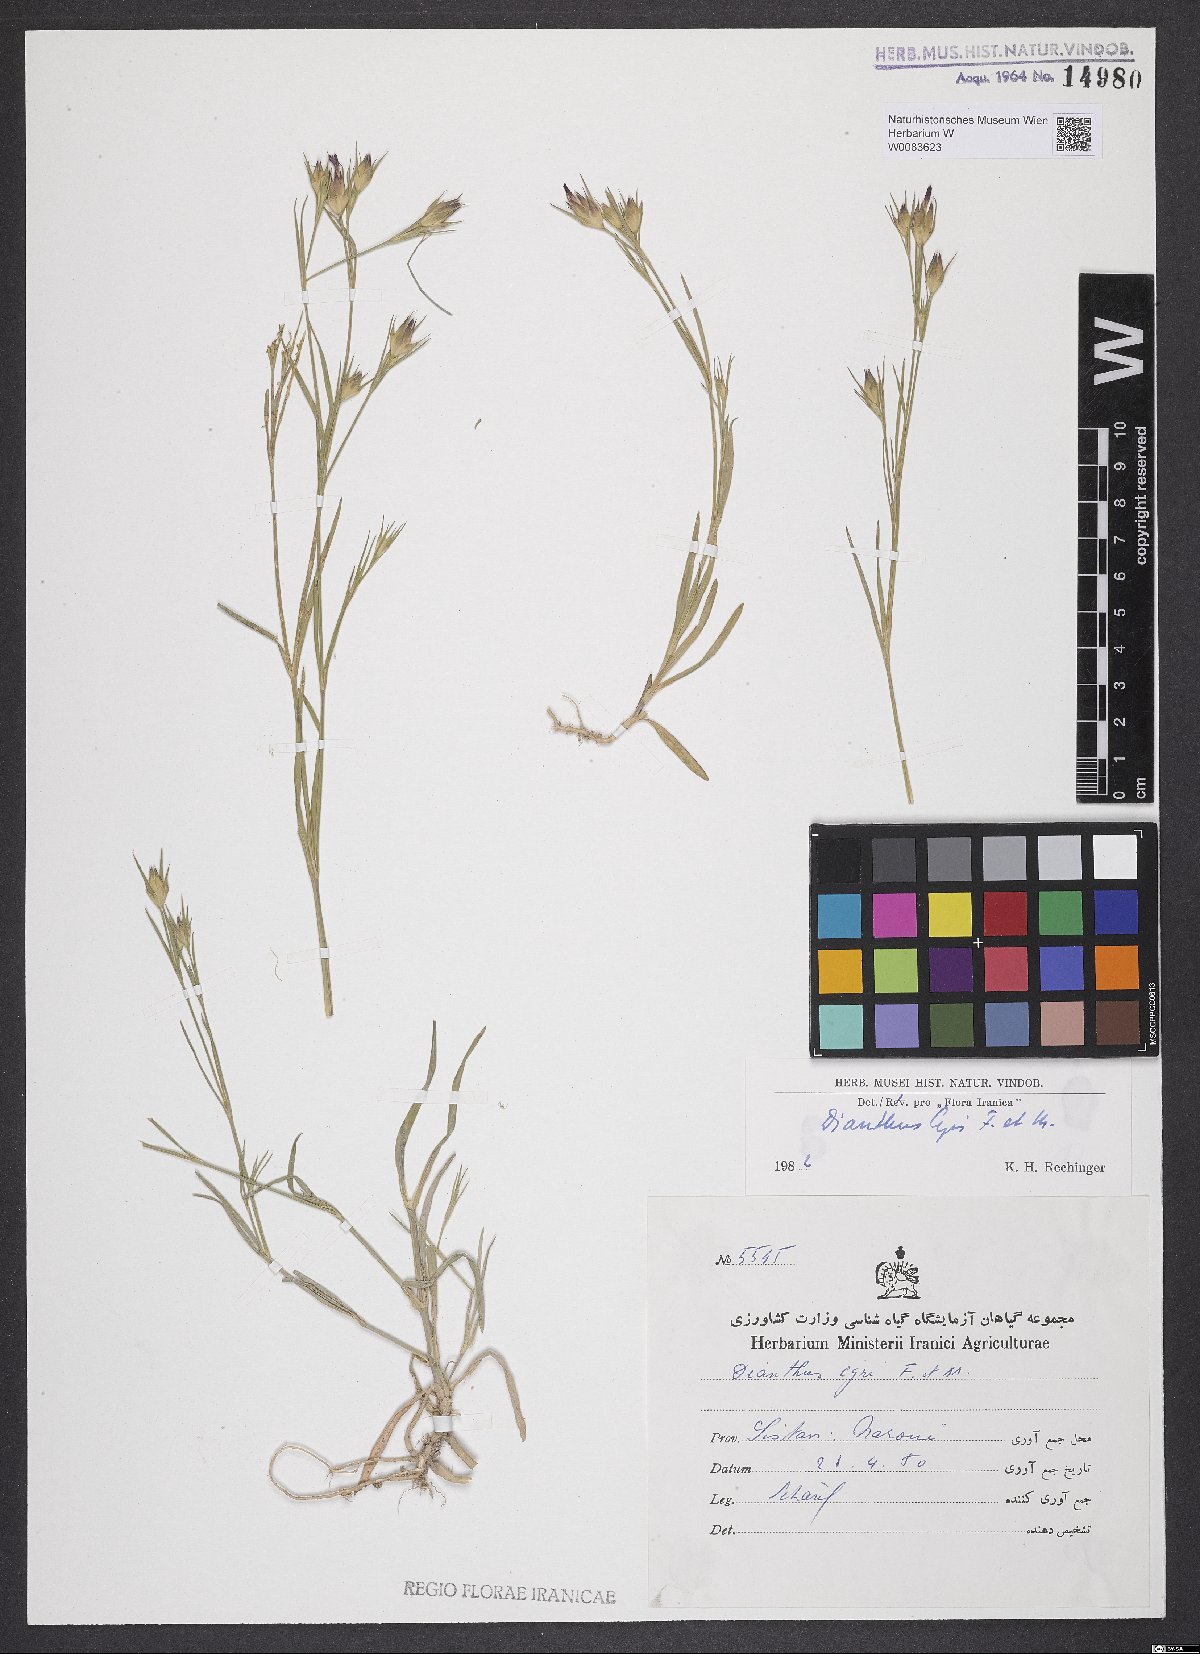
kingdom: Plantae
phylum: Tracheophyta
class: Magnoliopsida
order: Caryophyllales
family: Caryophyllaceae
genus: Dianthus
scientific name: Dianthus cyri
